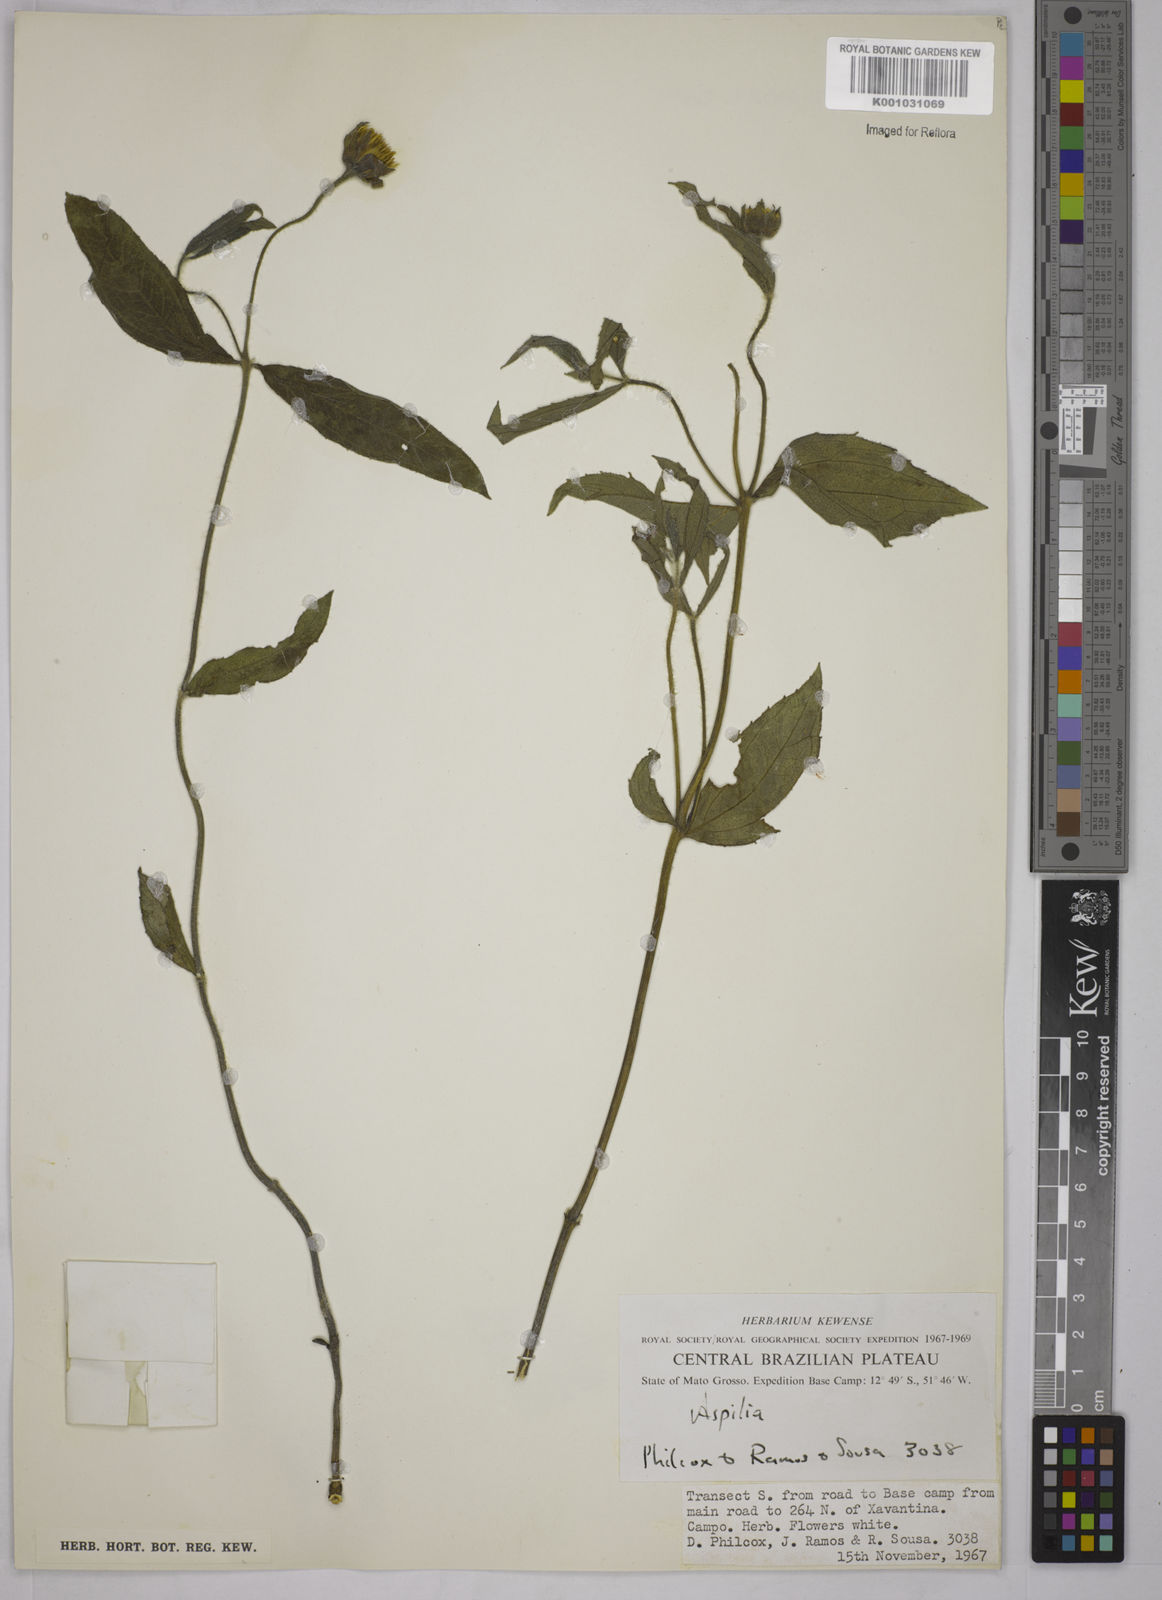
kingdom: Plantae
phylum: Tracheophyta
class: Magnoliopsida
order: Asterales
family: Asteraceae
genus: Wedelia
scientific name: Wedelia leucoglossa
